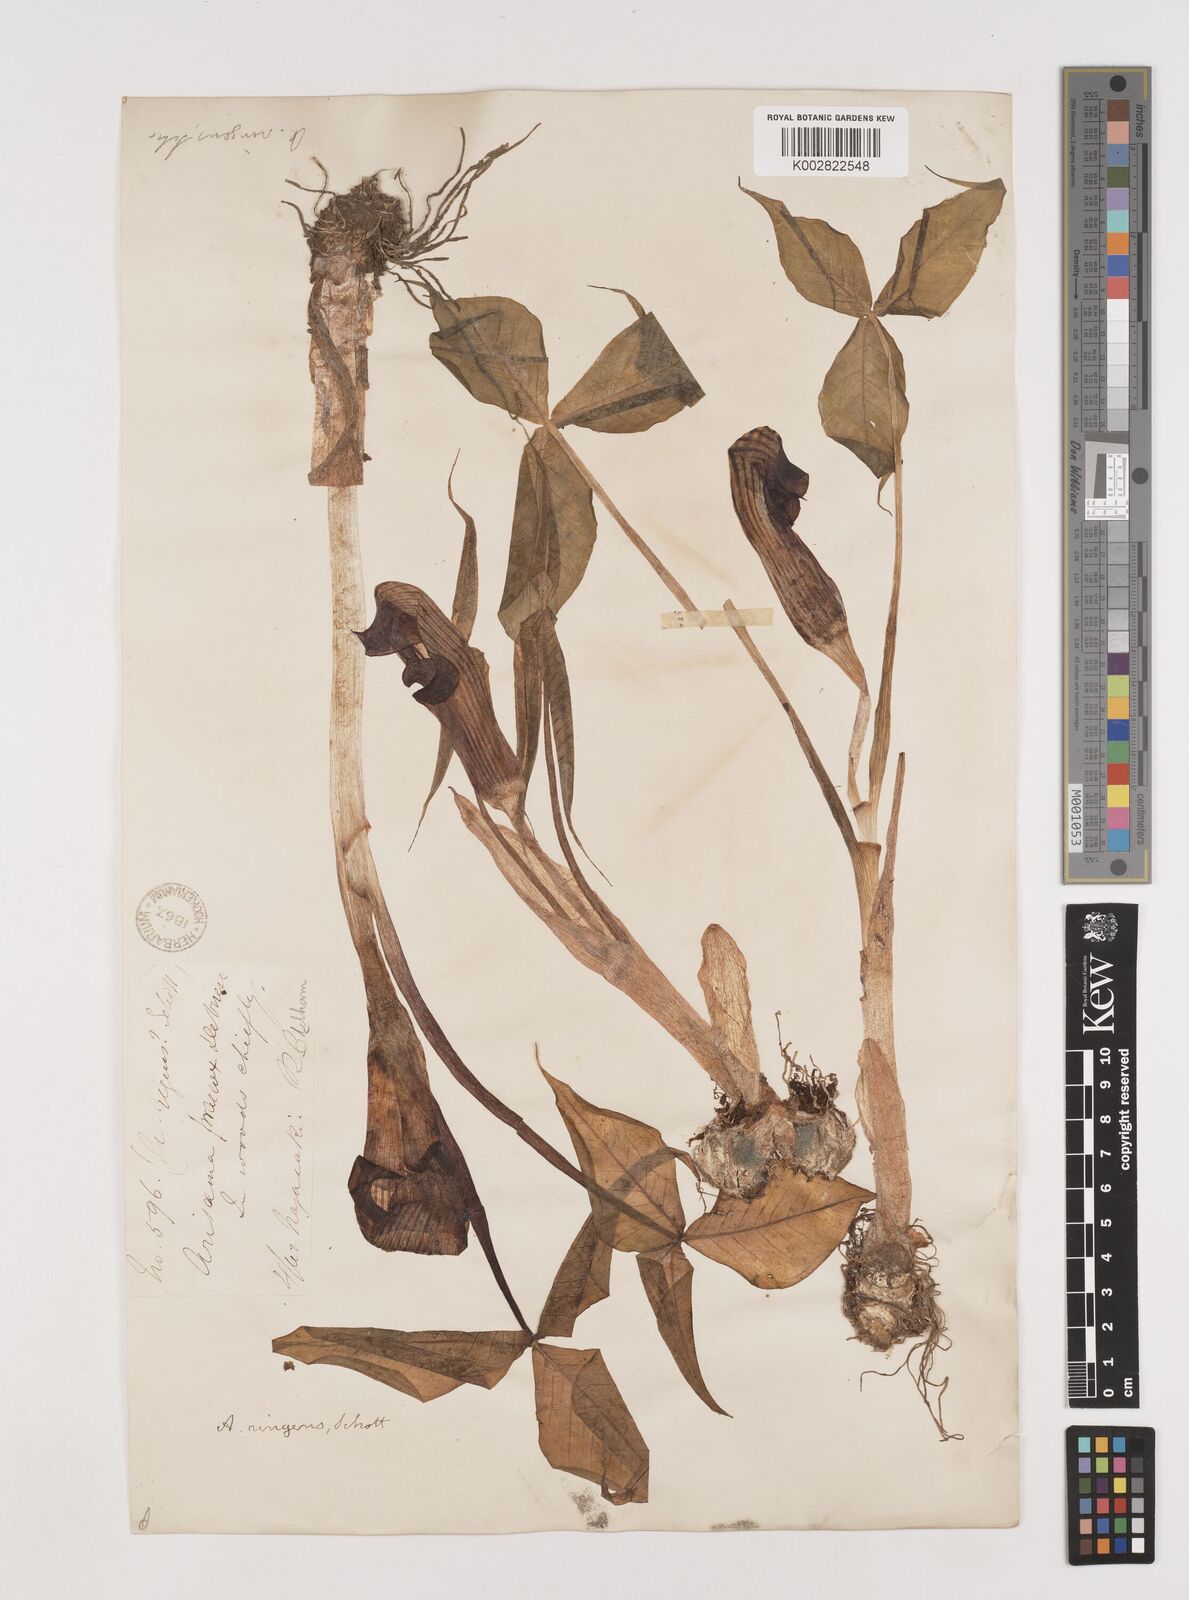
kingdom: Plantae
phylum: Tracheophyta
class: Liliopsida
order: Alismatales
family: Araceae
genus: Arisaema
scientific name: Arisaema ringens
